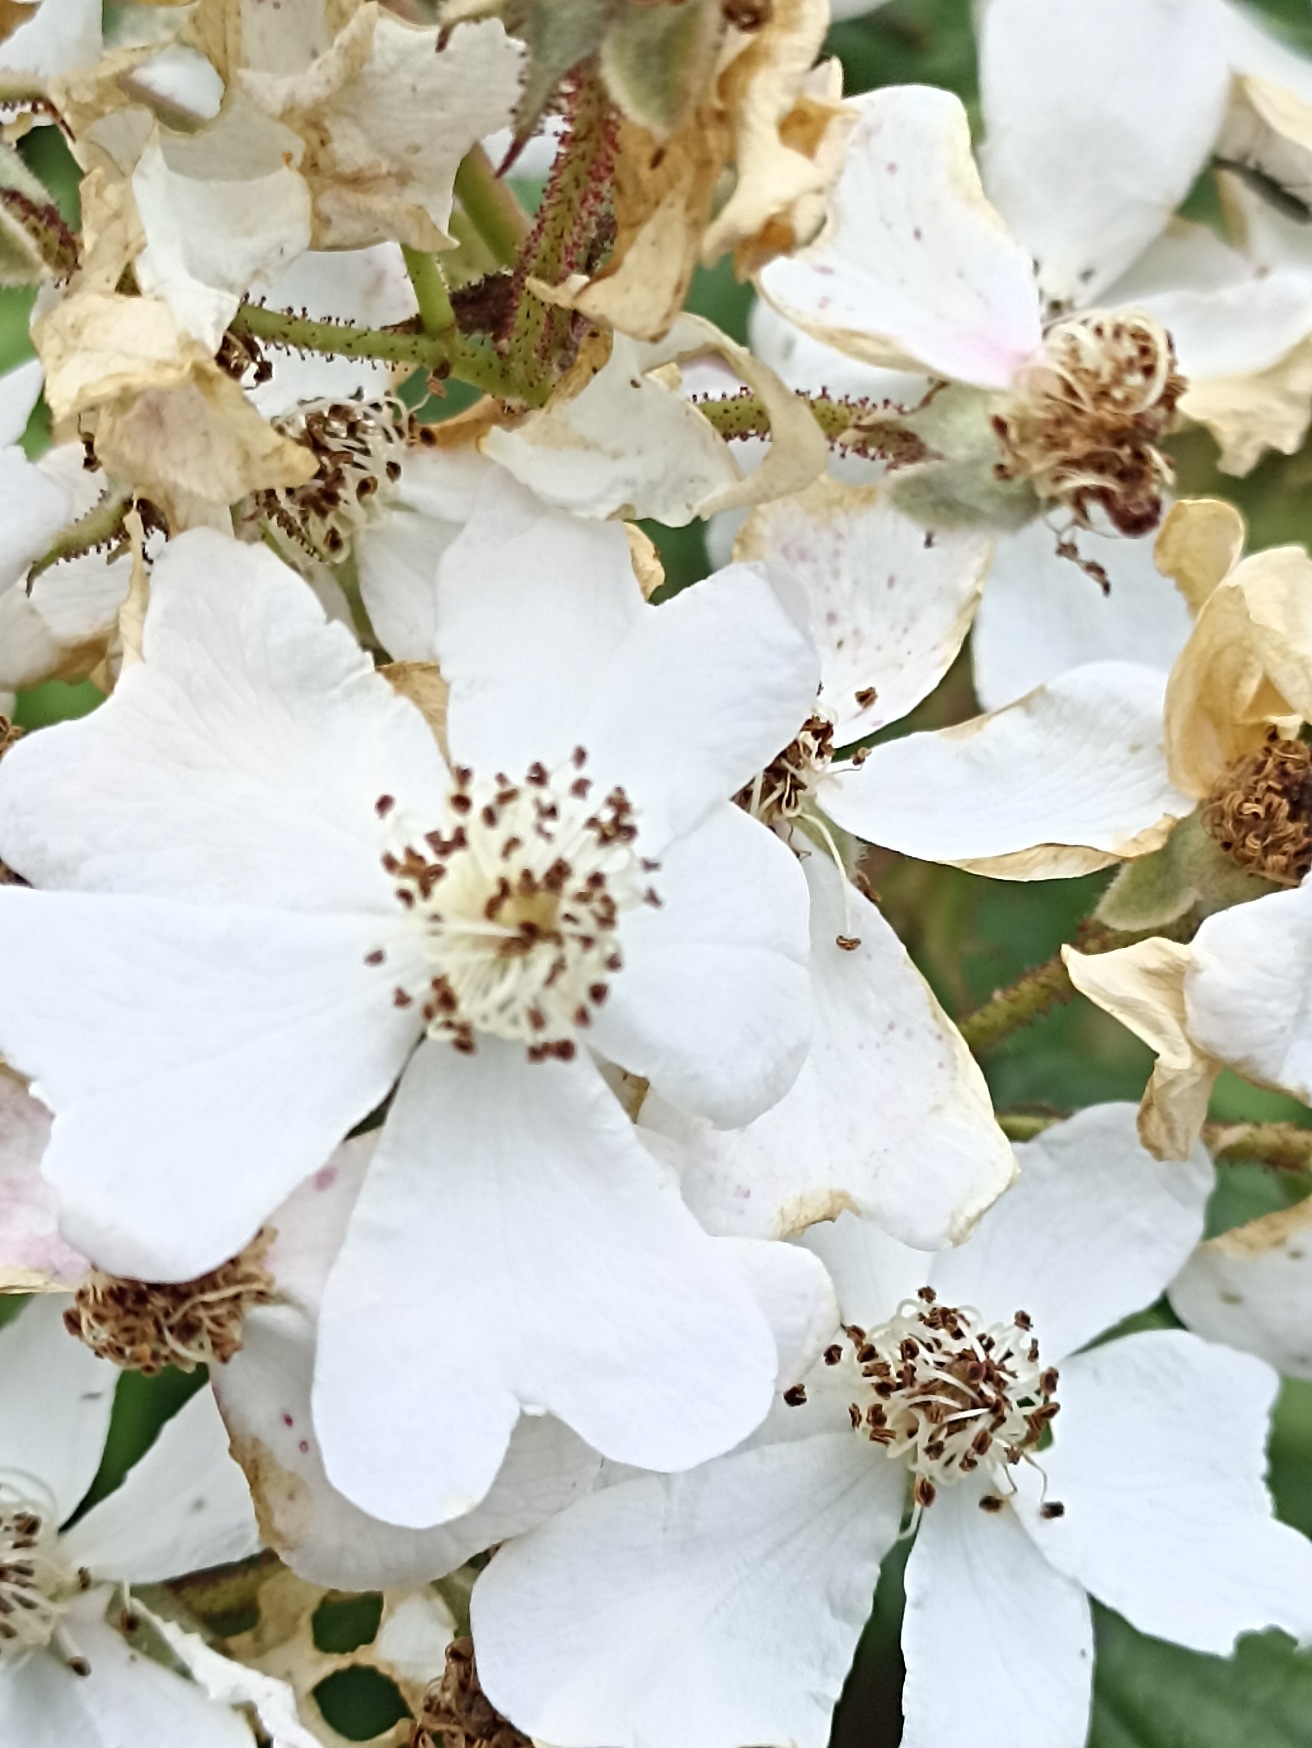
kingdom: Plantae
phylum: Tracheophyta
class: Magnoliopsida
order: Rosales
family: Rosaceae
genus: Rosa
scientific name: Rosa multiflora
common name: Mangeblomstret rose
